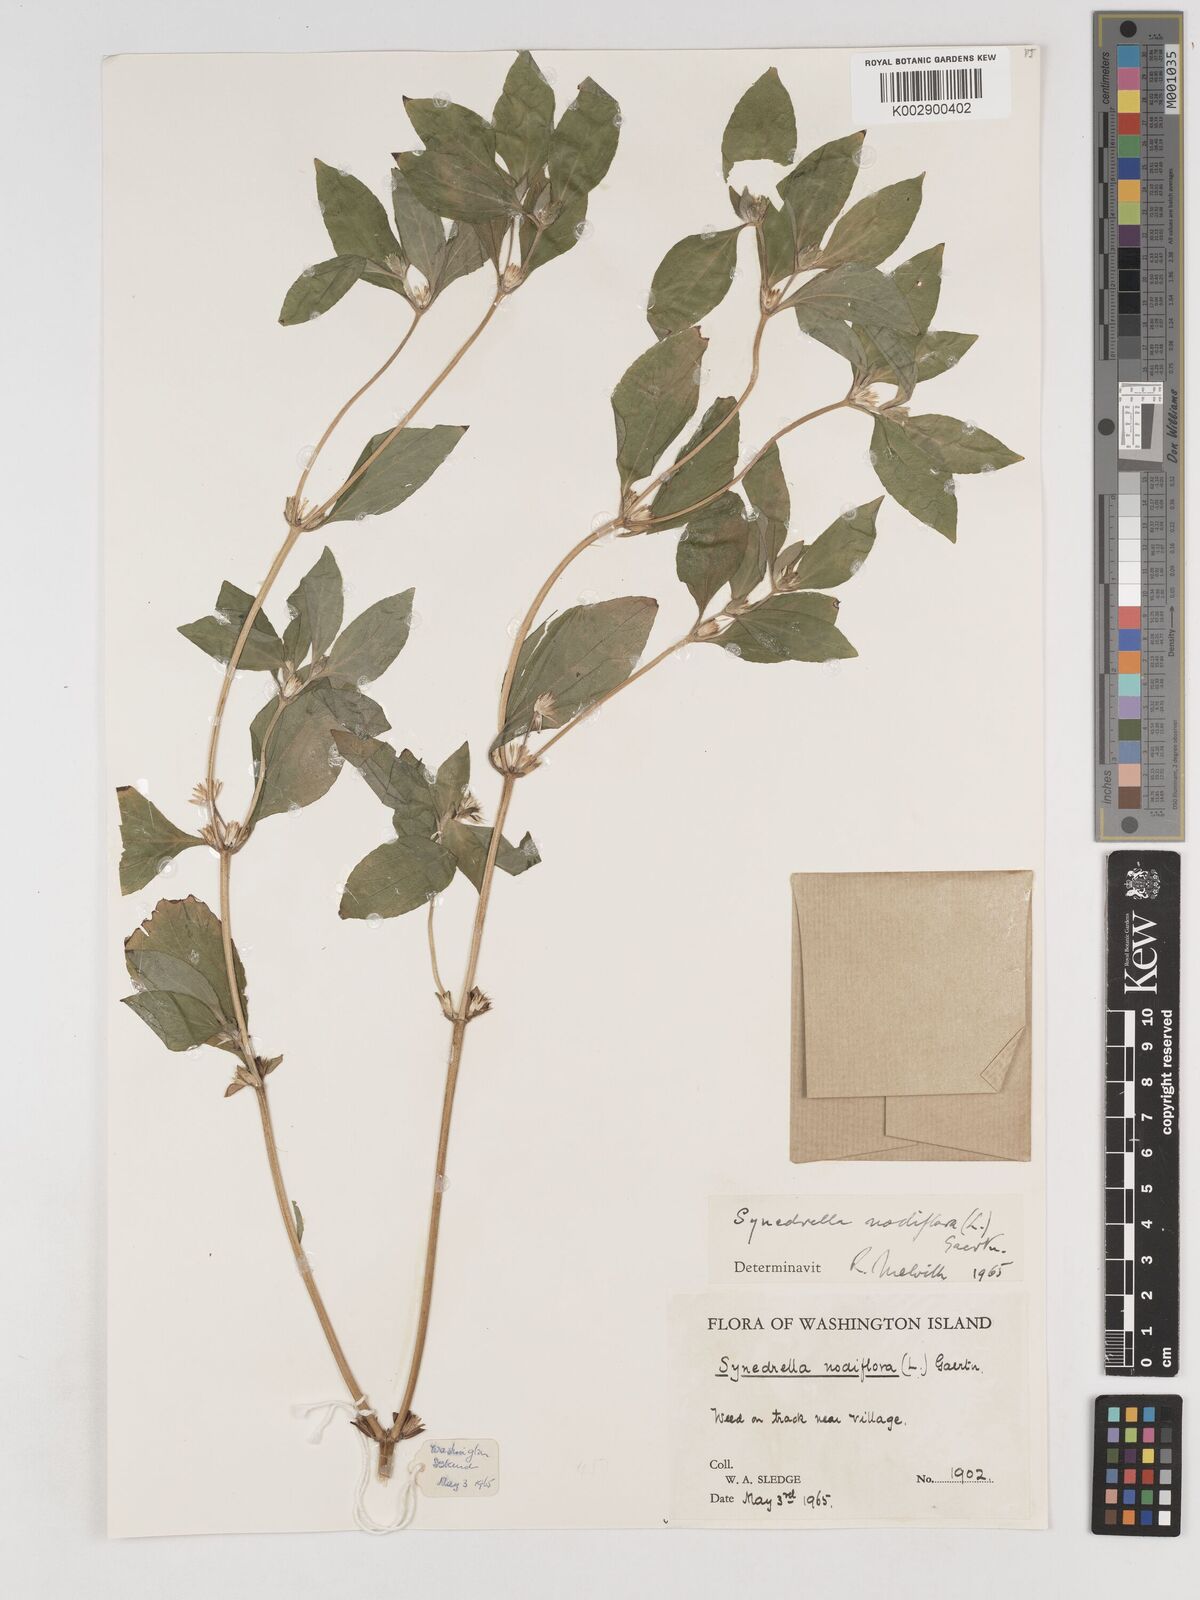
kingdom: Plantae
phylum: Tracheophyta
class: Magnoliopsida
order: Asterales
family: Asteraceae
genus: Synedrella
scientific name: Synedrella nodiflora
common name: Nodeweed
